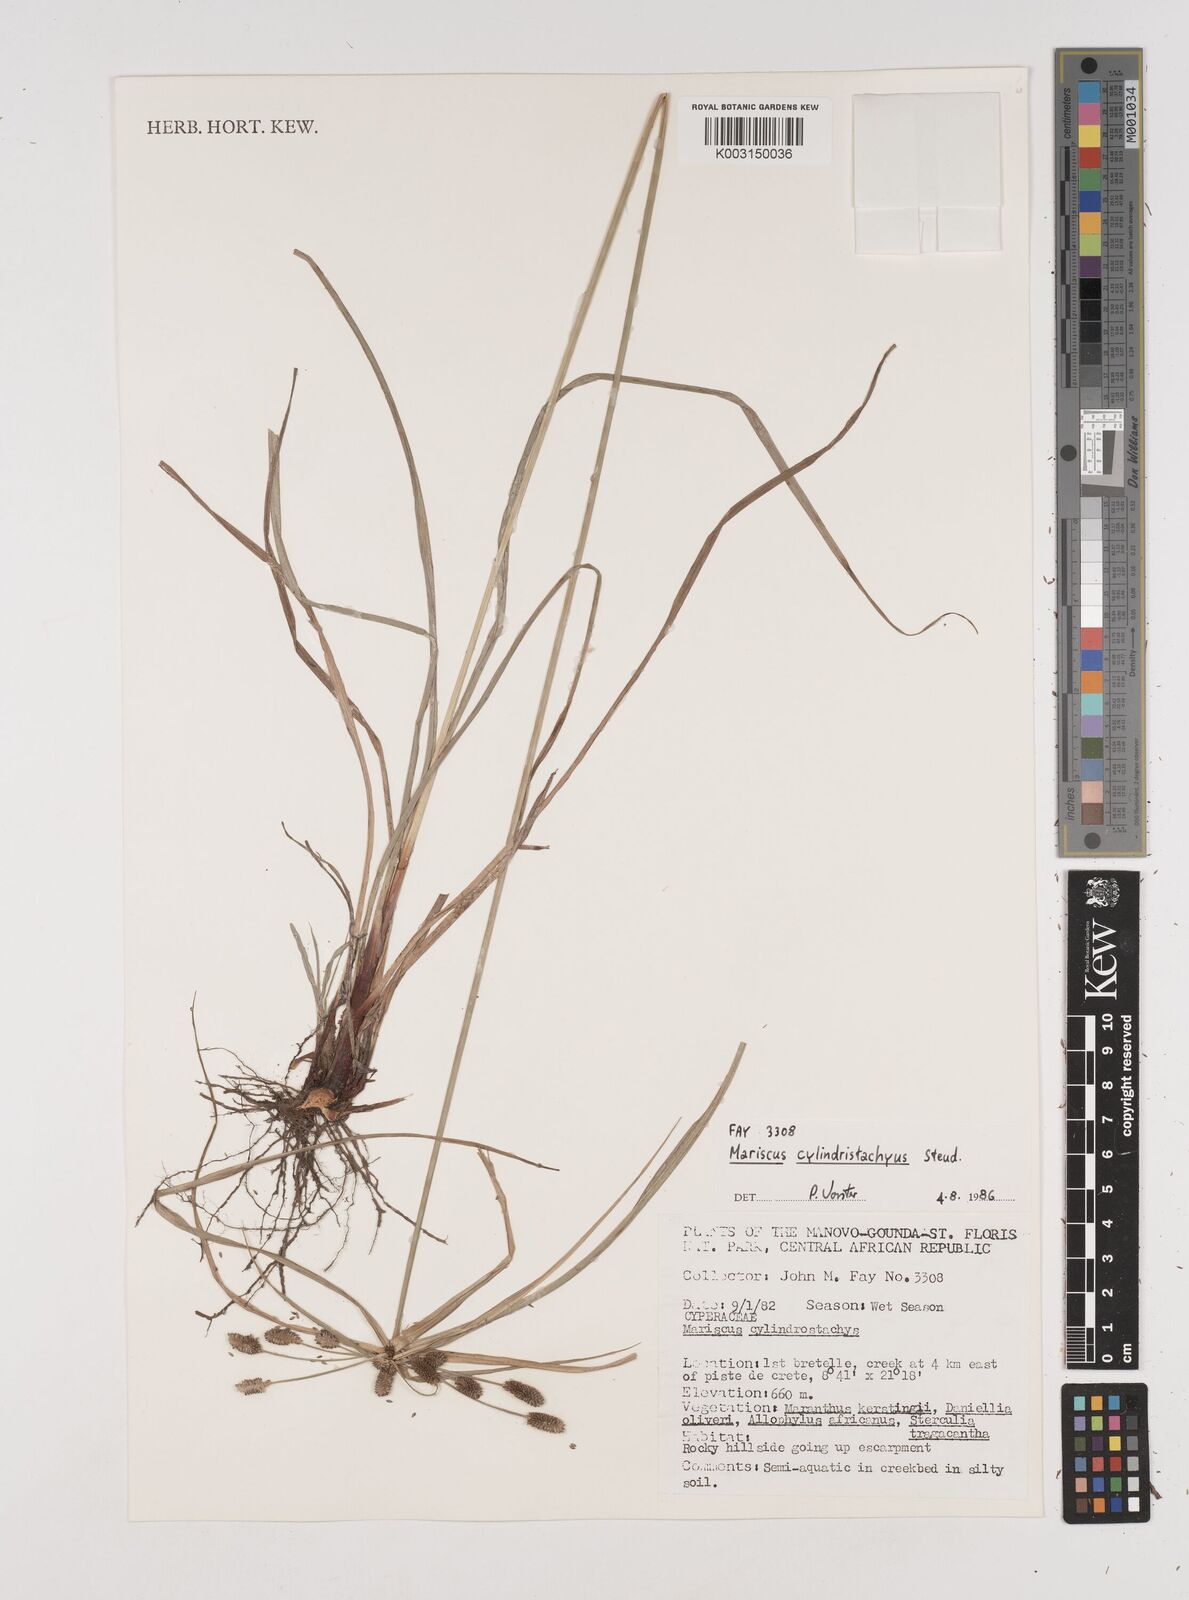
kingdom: Plantae
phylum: Tracheophyta
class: Liliopsida
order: Poales
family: Cyperaceae
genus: Cyperus
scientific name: Cyperus cyperoides
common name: Pacific island flat sedge
